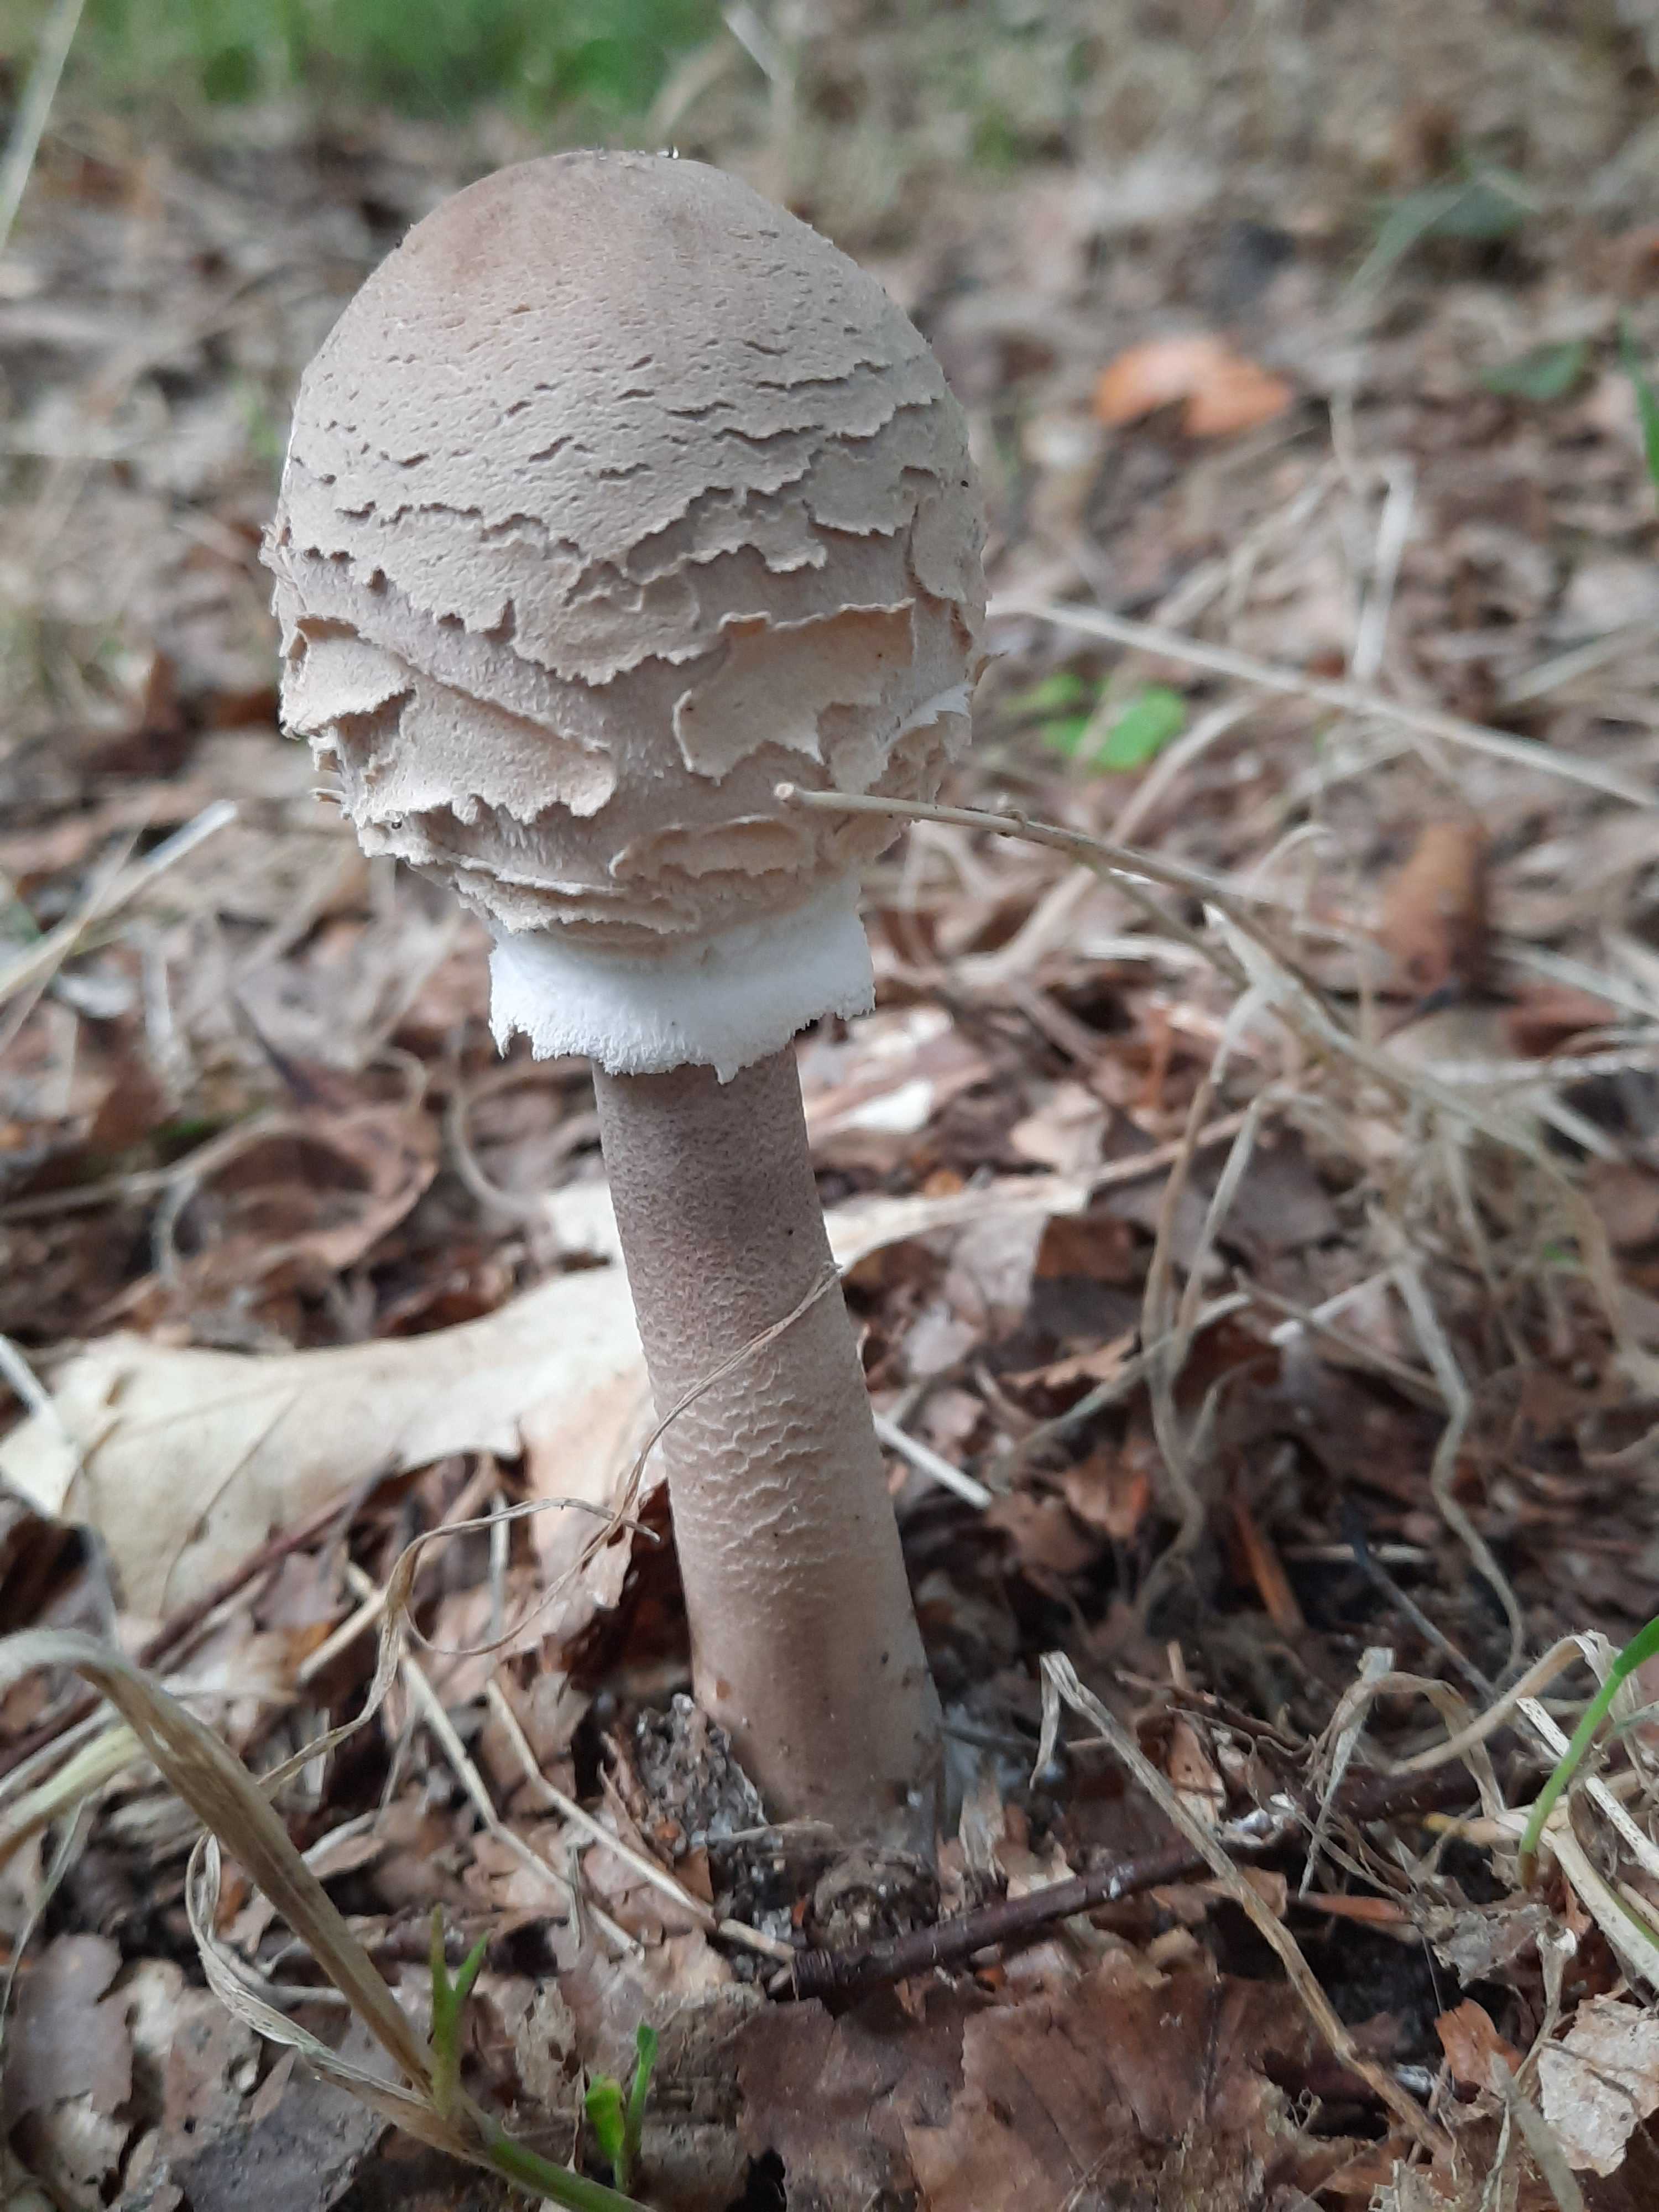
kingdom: Fungi
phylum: Basidiomycota
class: Agaricomycetes
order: Agaricales
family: Agaricaceae
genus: Macrolepiota
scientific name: Macrolepiota procera
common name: stor kæmpeparasolhat
